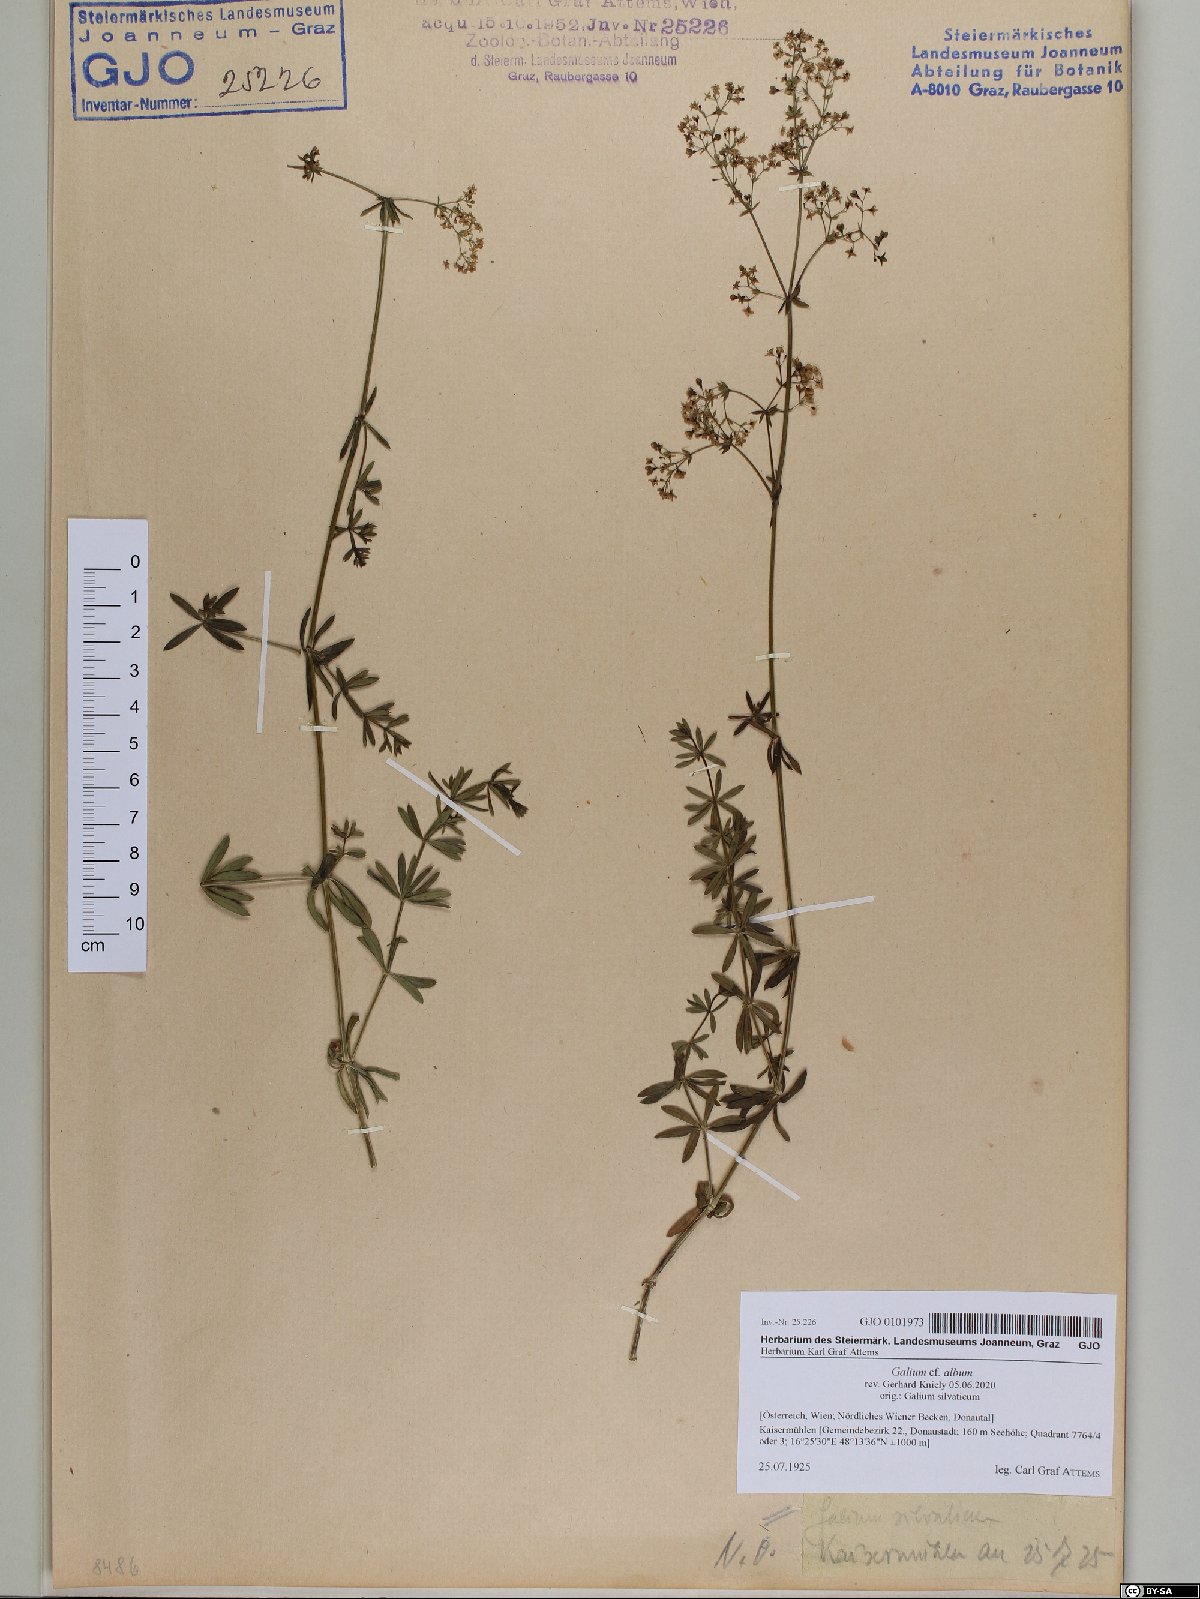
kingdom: Plantae
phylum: Tracheophyta
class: Magnoliopsida
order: Gentianales
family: Rubiaceae
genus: Galium
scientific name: Galium album
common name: White bedstraw
